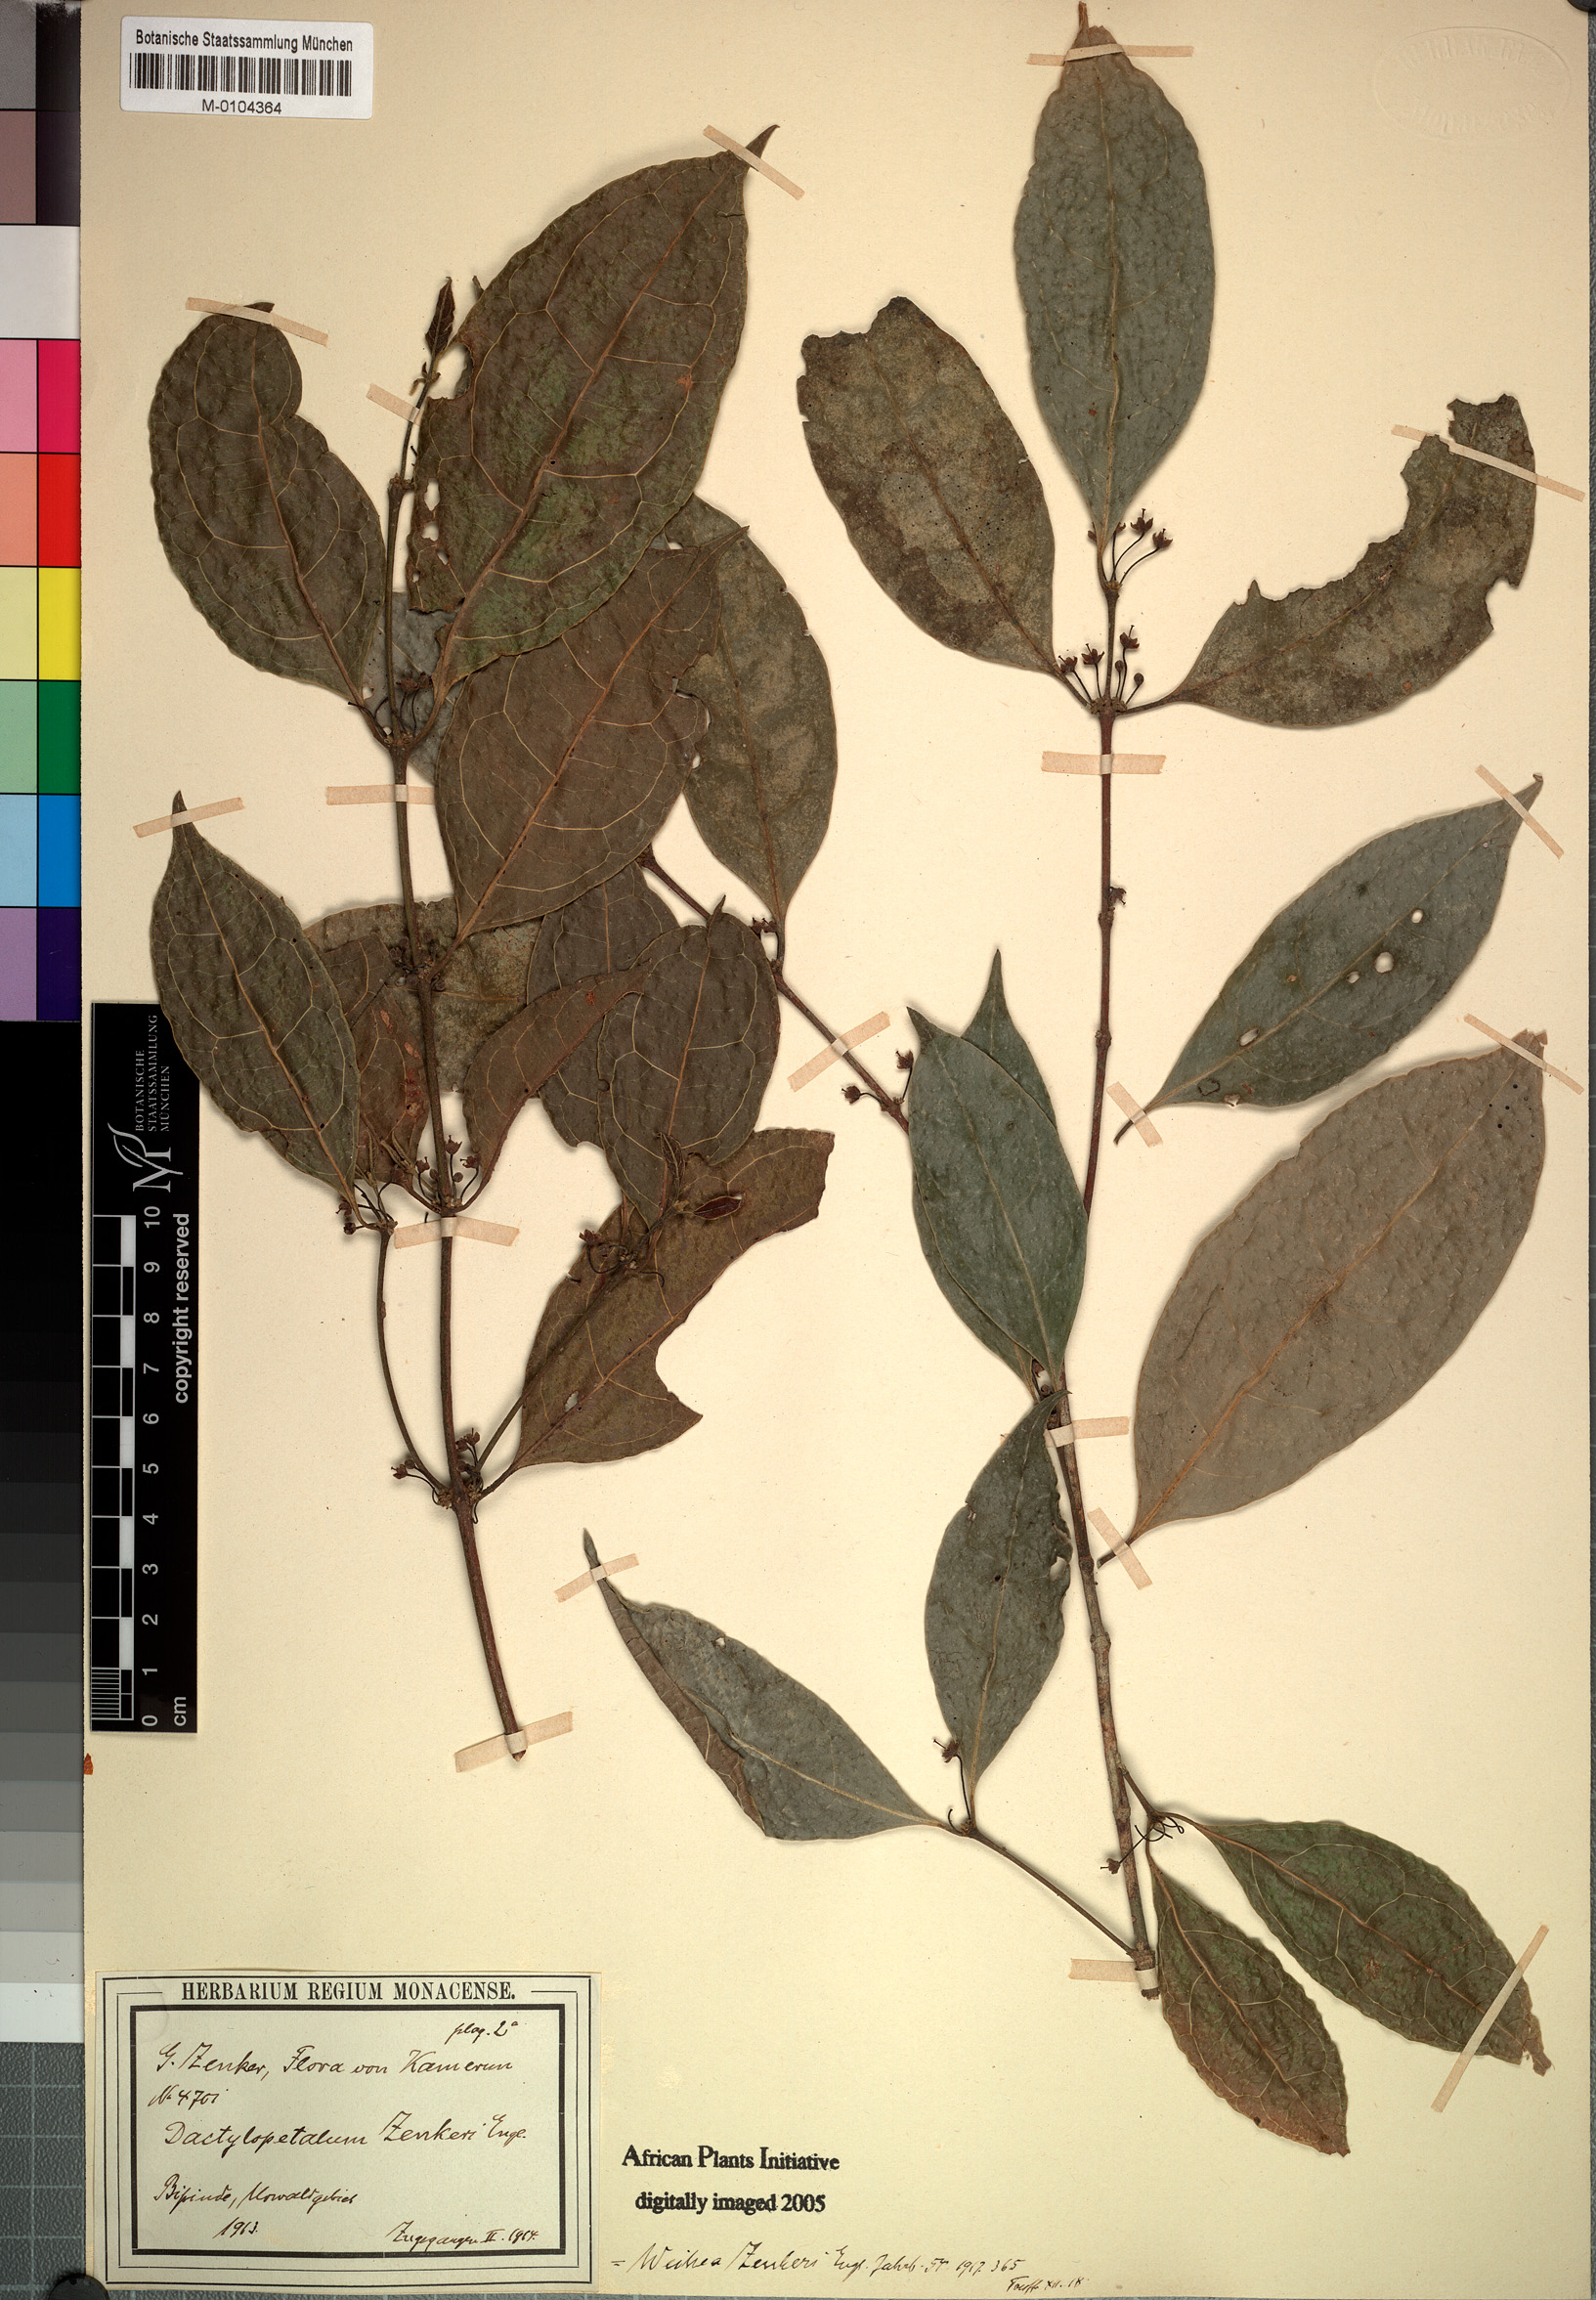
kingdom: Plantae
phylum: Tracheophyta
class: Magnoliopsida
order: Malpighiales
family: Rhizophoraceae
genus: Cassipourea
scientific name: Cassipourea zenkeri
